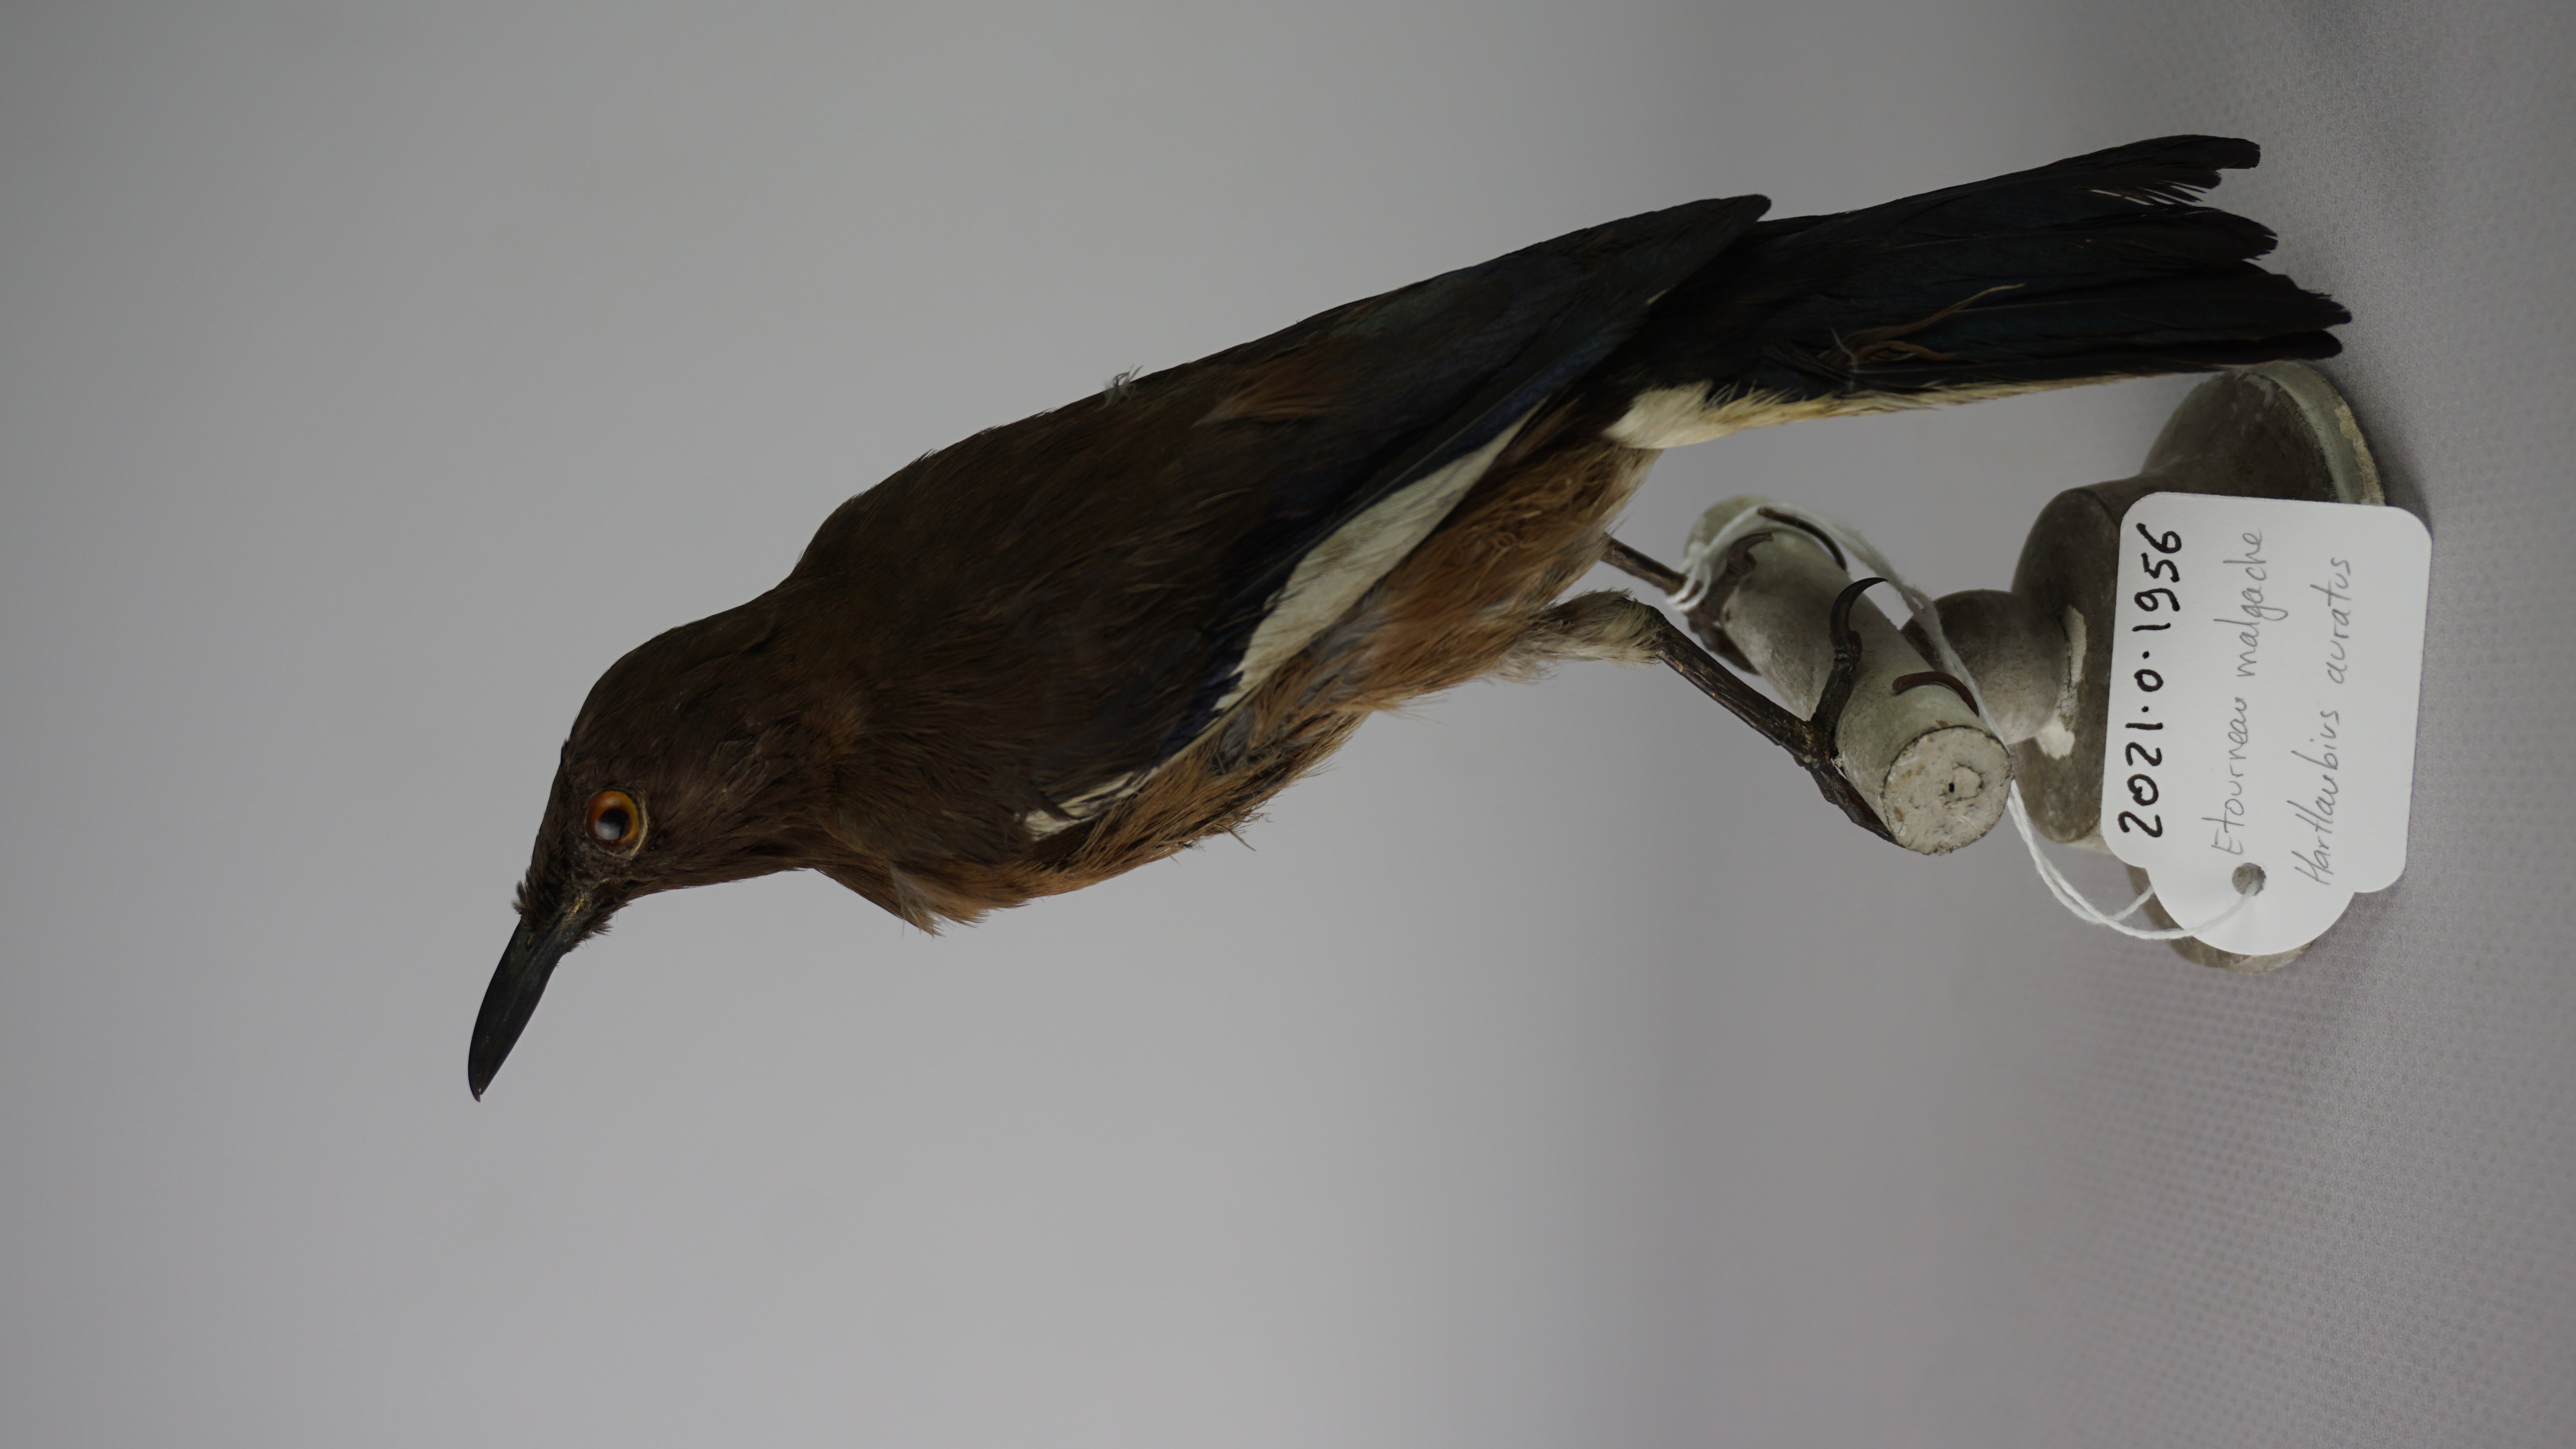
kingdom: Animalia
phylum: Chordata
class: Aves
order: Passeriformes
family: Sturnidae
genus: Hartlaubius
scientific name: Hartlaubius auratus
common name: Madagascar starling
